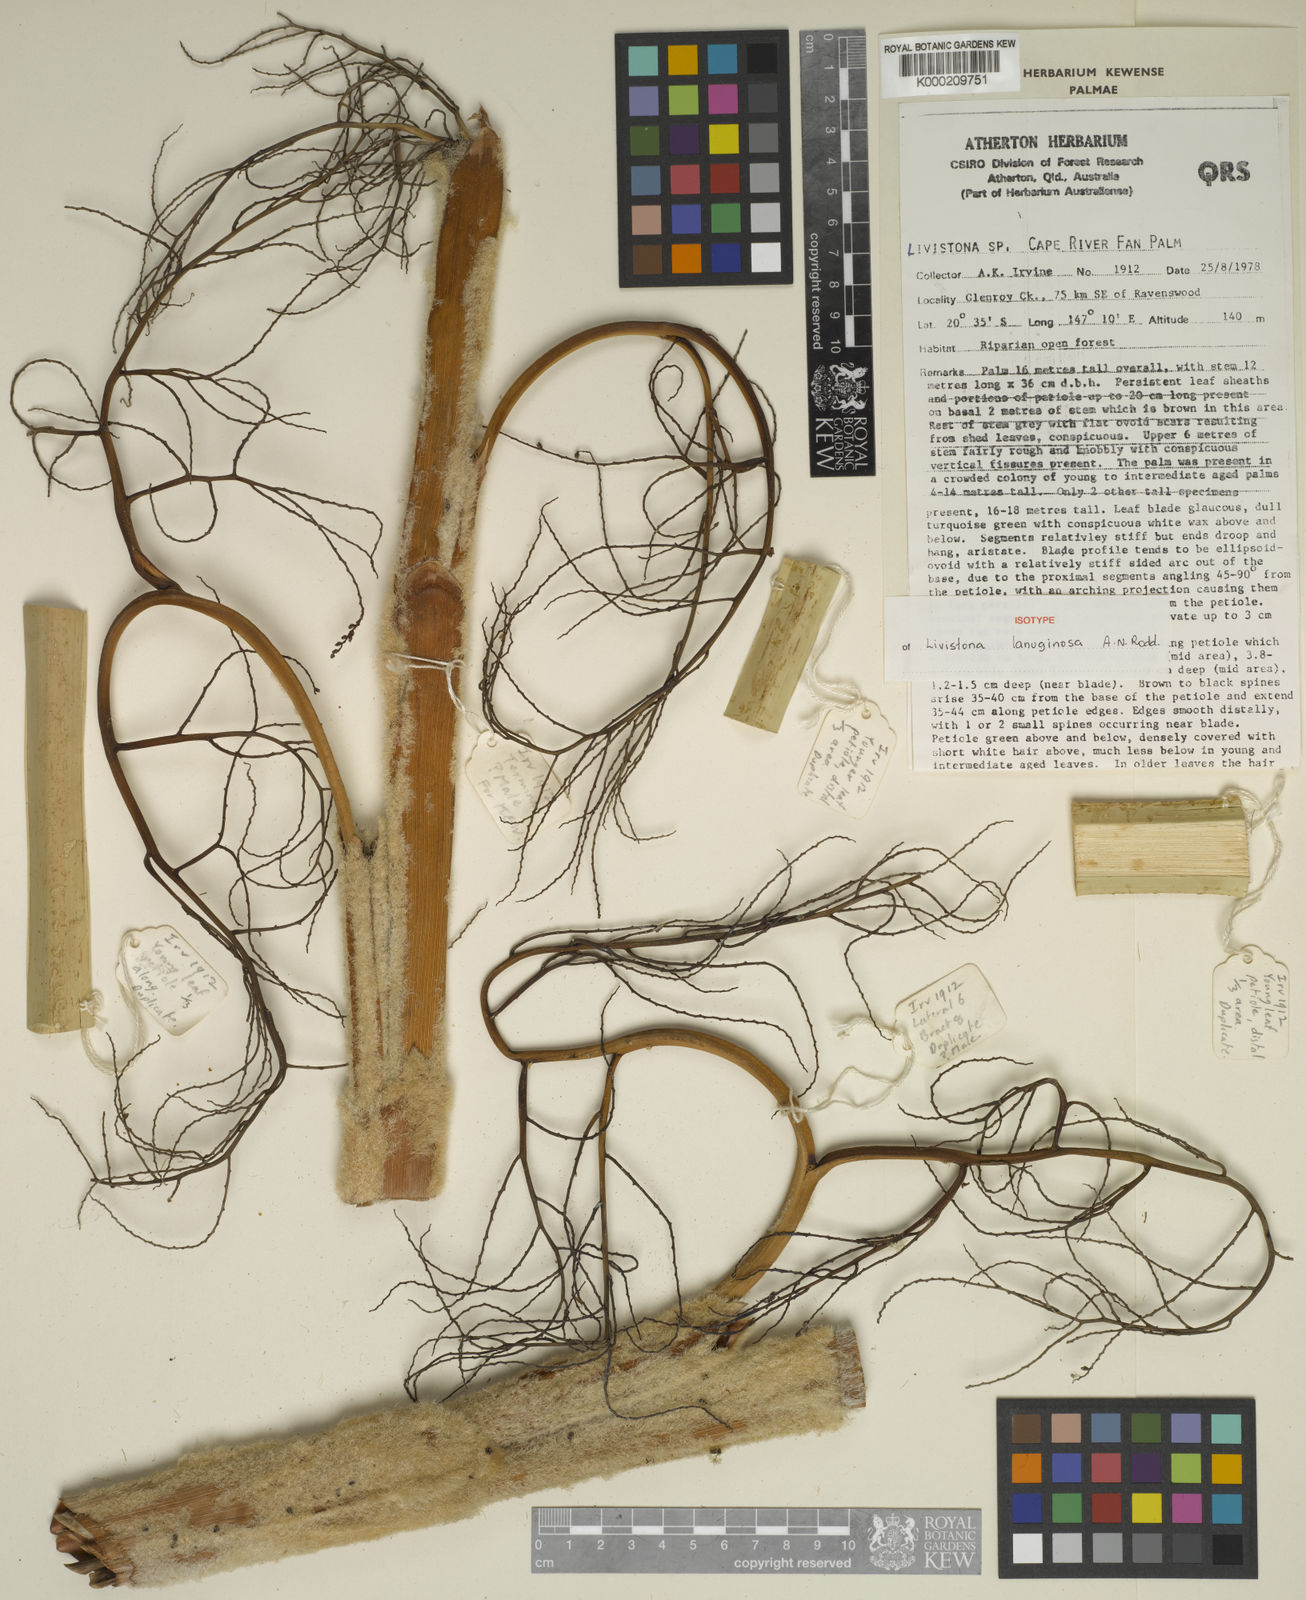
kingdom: Plantae
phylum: Tracheophyta
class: Liliopsida
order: Arecales
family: Arecaceae
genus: Livistona
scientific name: Livistona lanuginosa
